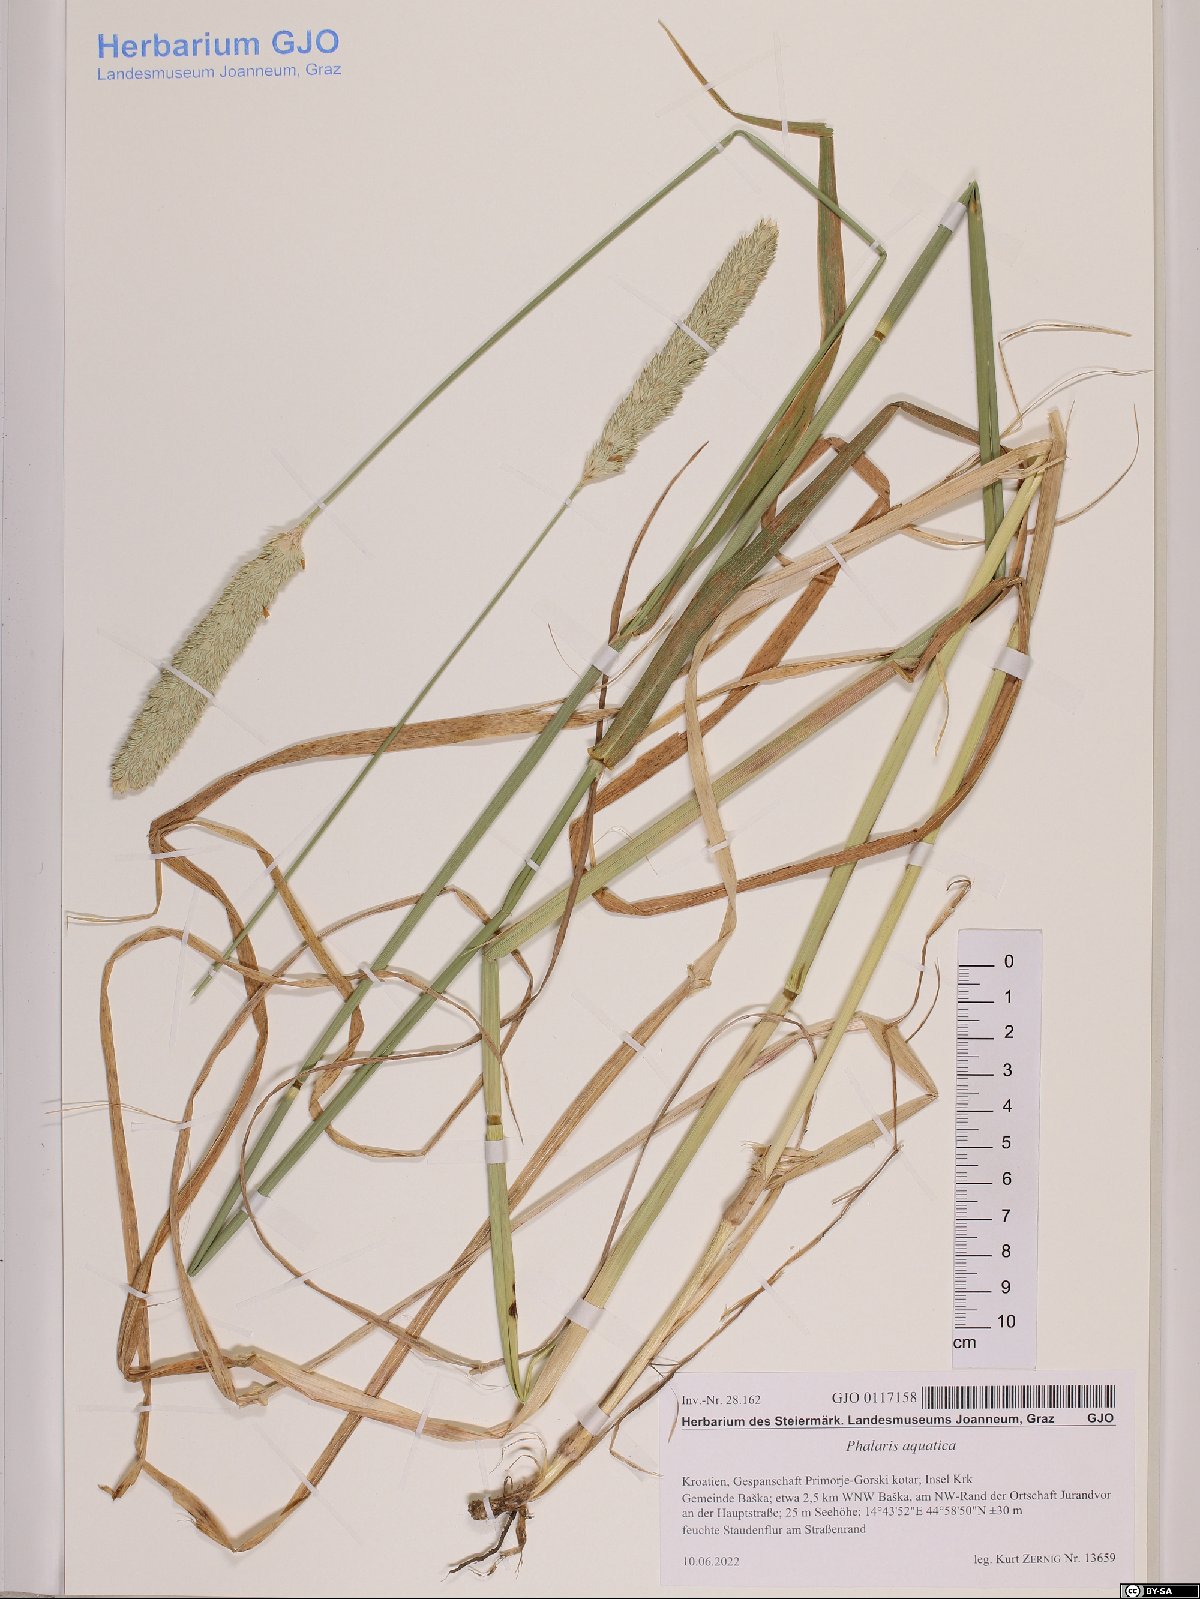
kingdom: Plantae
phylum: Tracheophyta
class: Liliopsida
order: Poales
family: Poaceae
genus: Phalaris
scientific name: Phalaris aquatica
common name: Bulbous canary-grass
